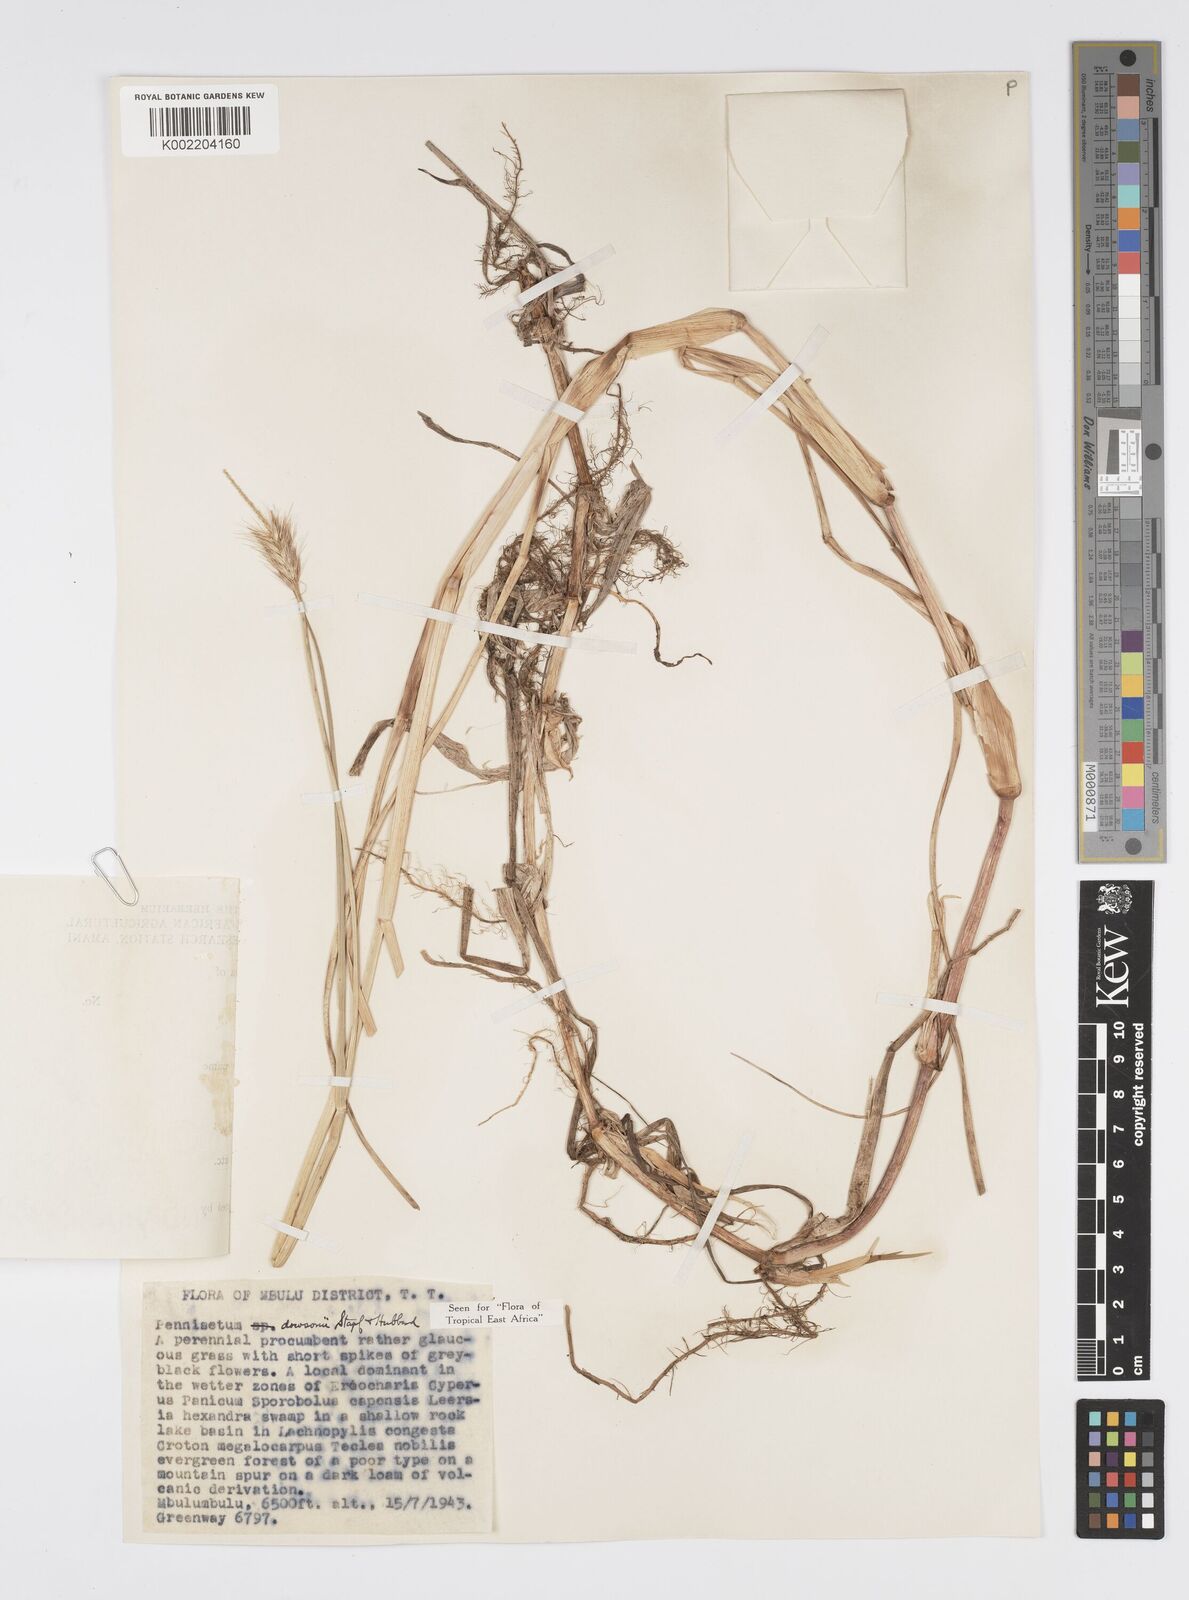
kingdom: Plantae
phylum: Tracheophyta
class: Liliopsida
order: Poales
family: Poaceae
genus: Cenchrus
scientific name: Cenchrus riparius
